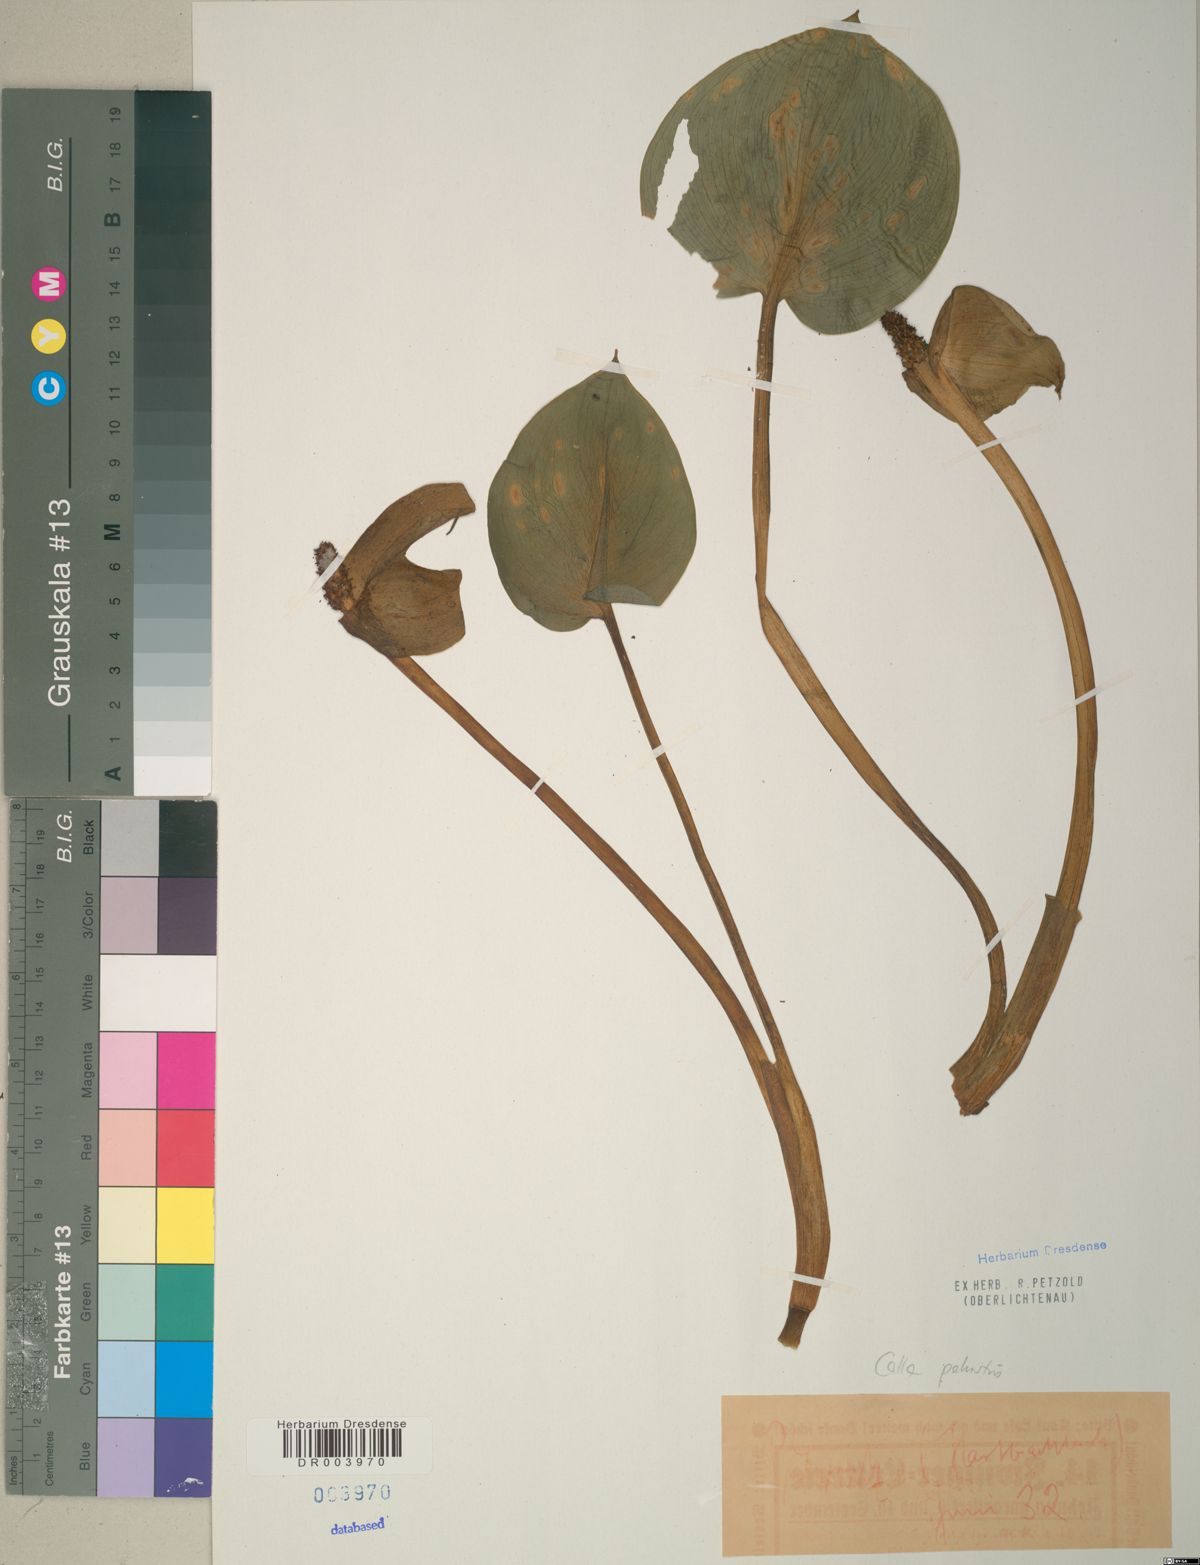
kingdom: Plantae
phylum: Tracheophyta
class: Liliopsida
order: Alismatales
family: Araceae
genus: Calla
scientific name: Calla palustris
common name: Bog arum
